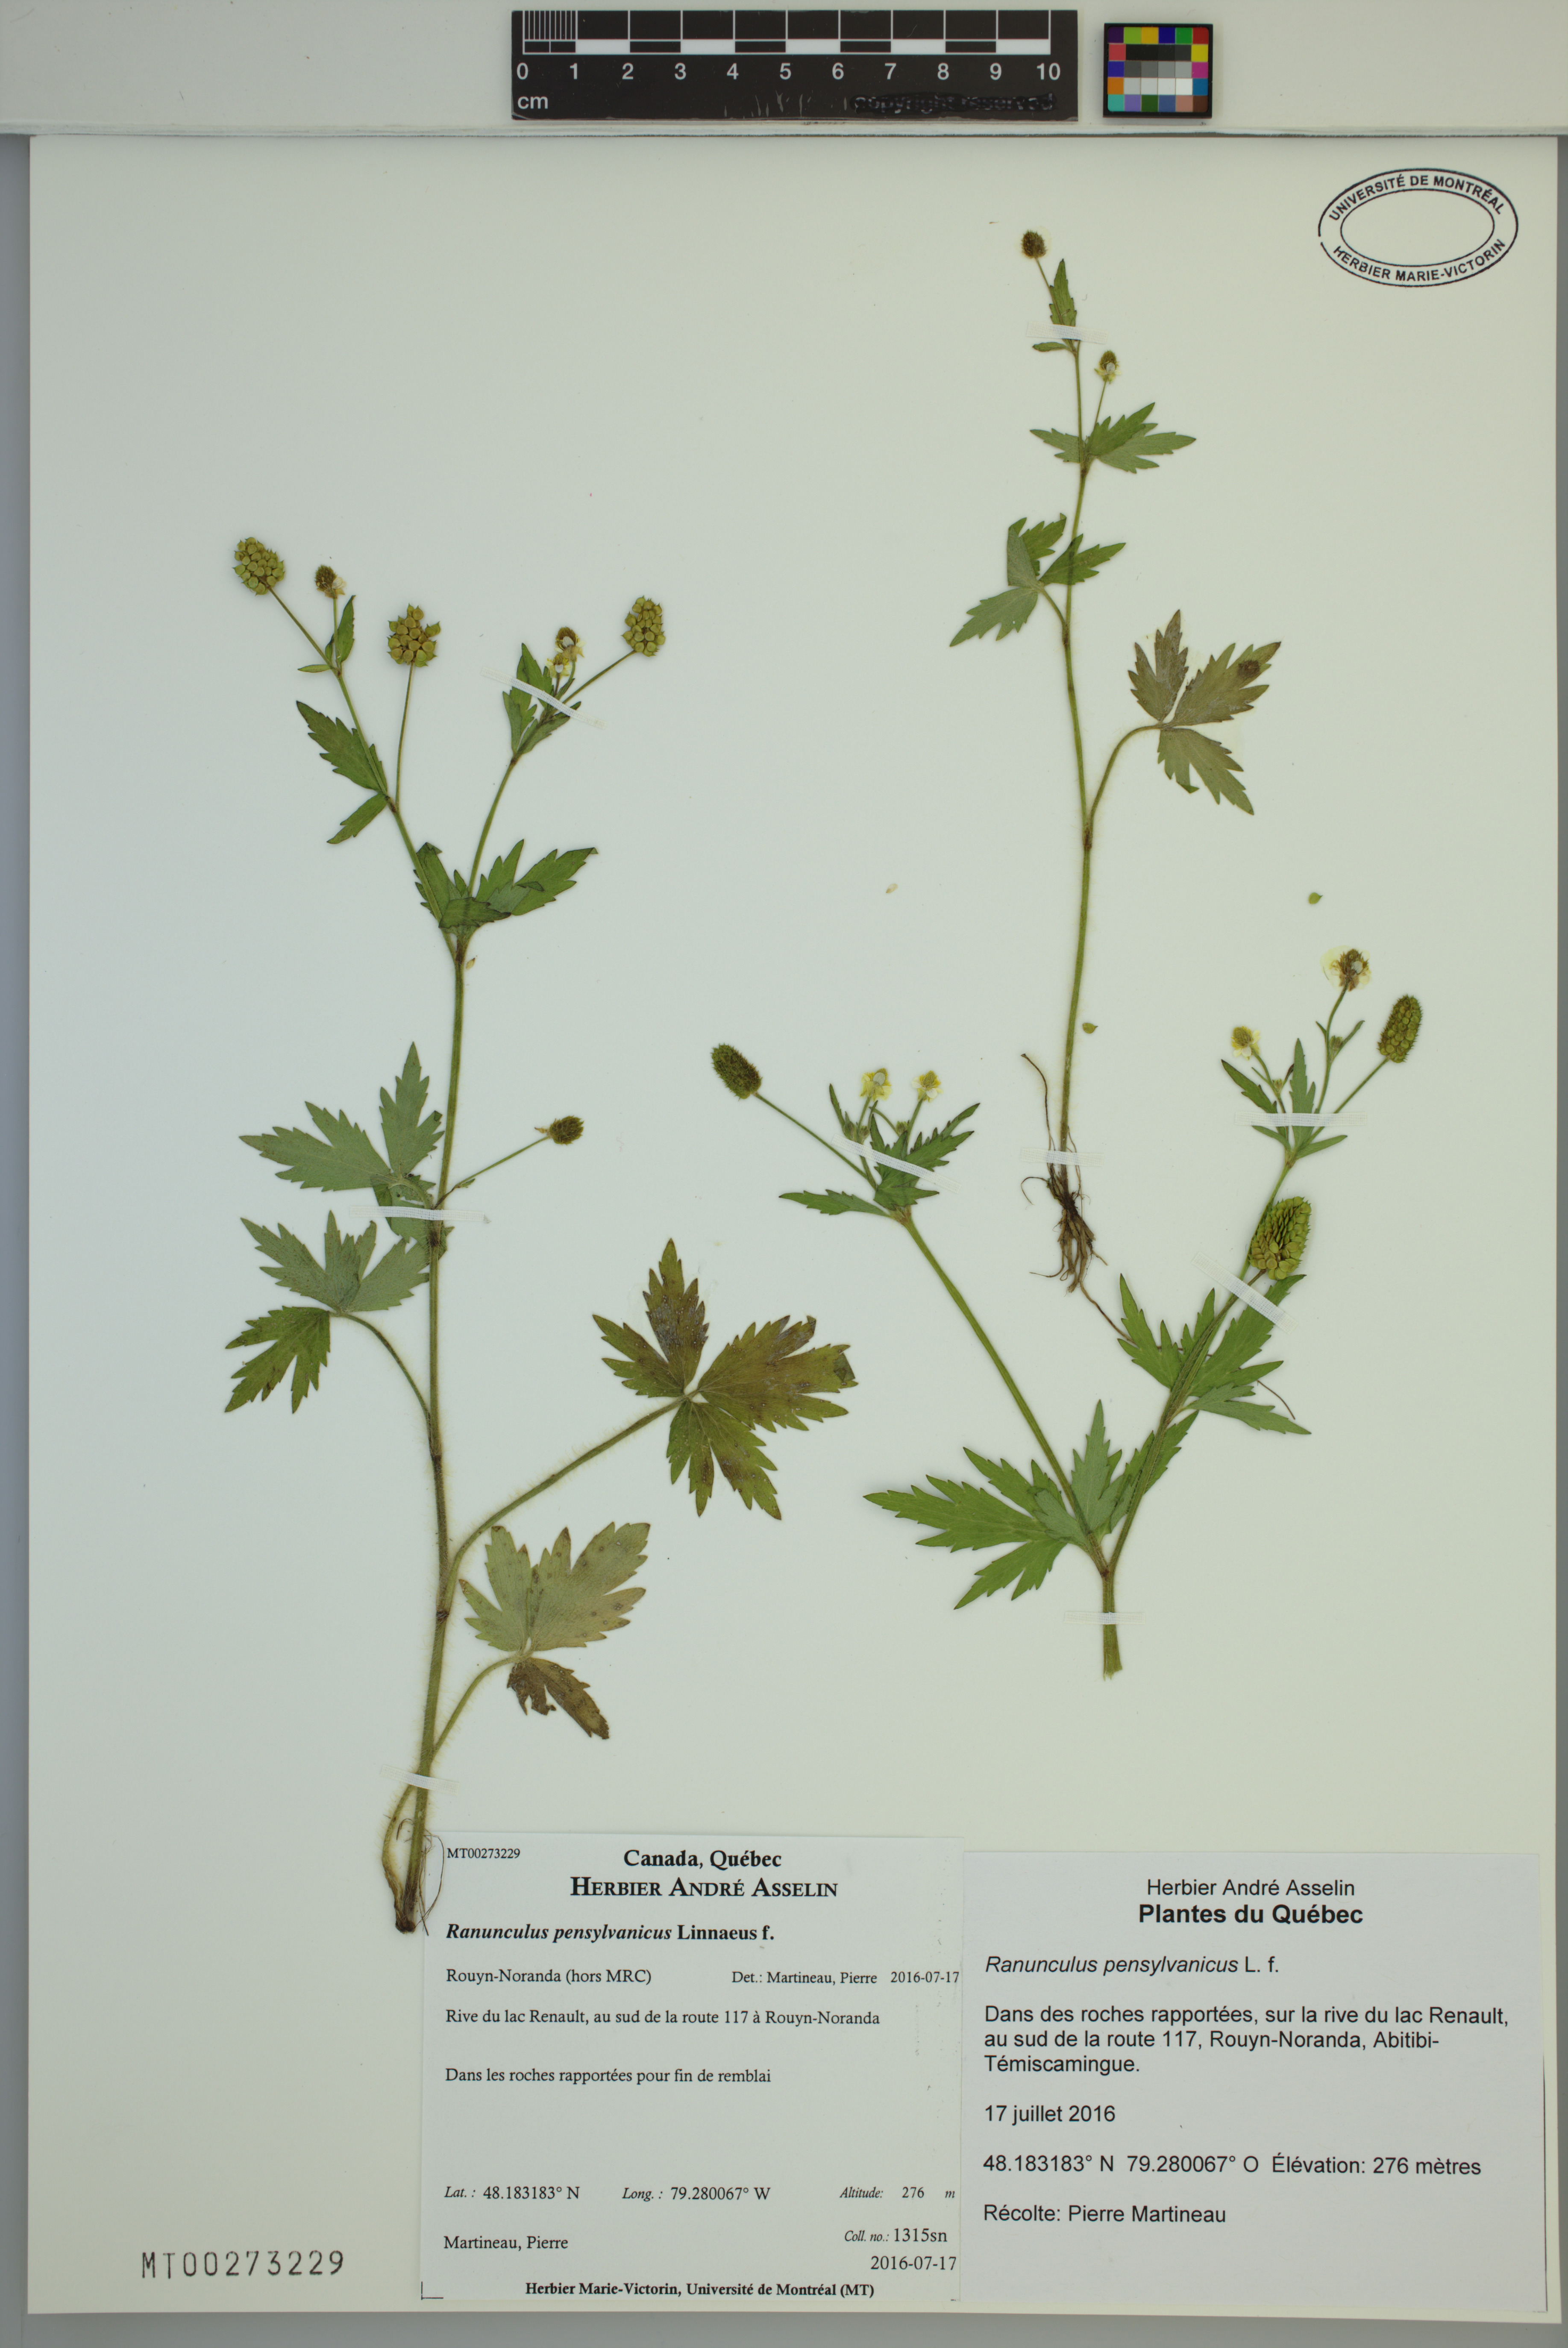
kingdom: Plantae
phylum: Tracheophyta
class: Magnoliopsida
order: Ranunculales
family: Ranunculaceae
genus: Ranunculus
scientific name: Ranunculus pensylvanicus
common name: Bristly buttercup
